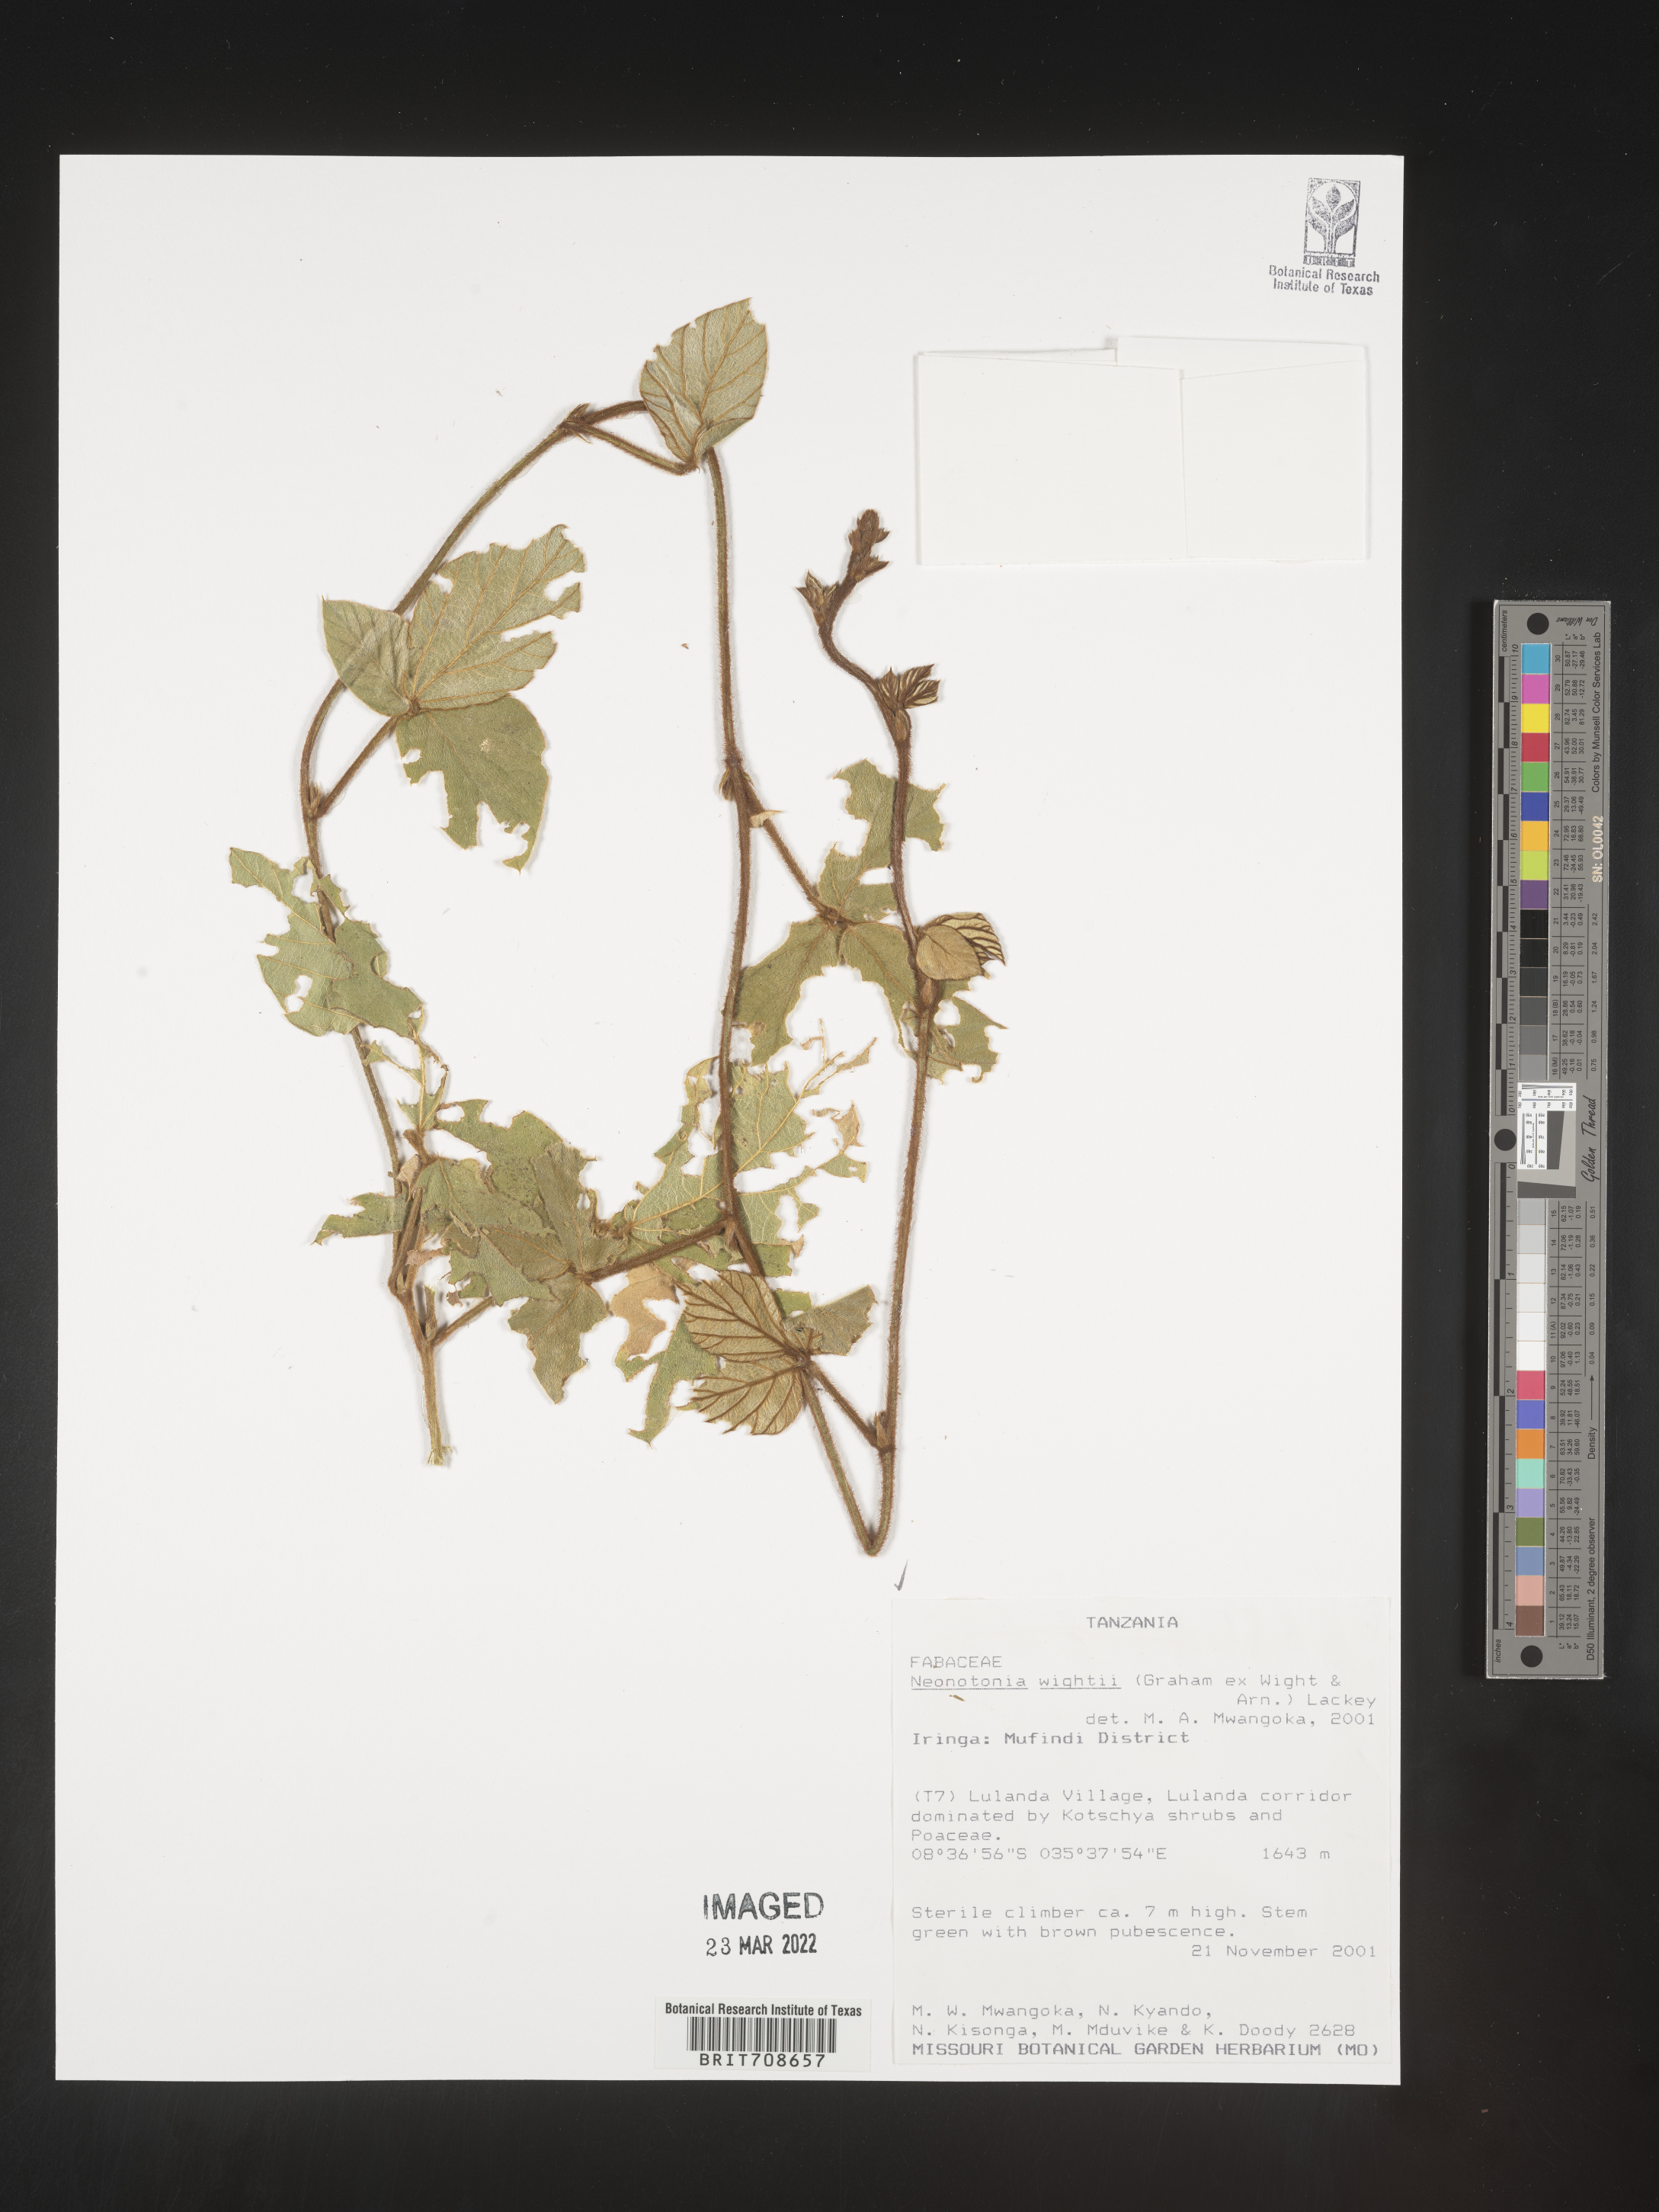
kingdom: Plantae
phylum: Tracheophyta
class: Magnoliopsida
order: Fabales
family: Fabaceae
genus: Neonotonia
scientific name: Neonotonia
